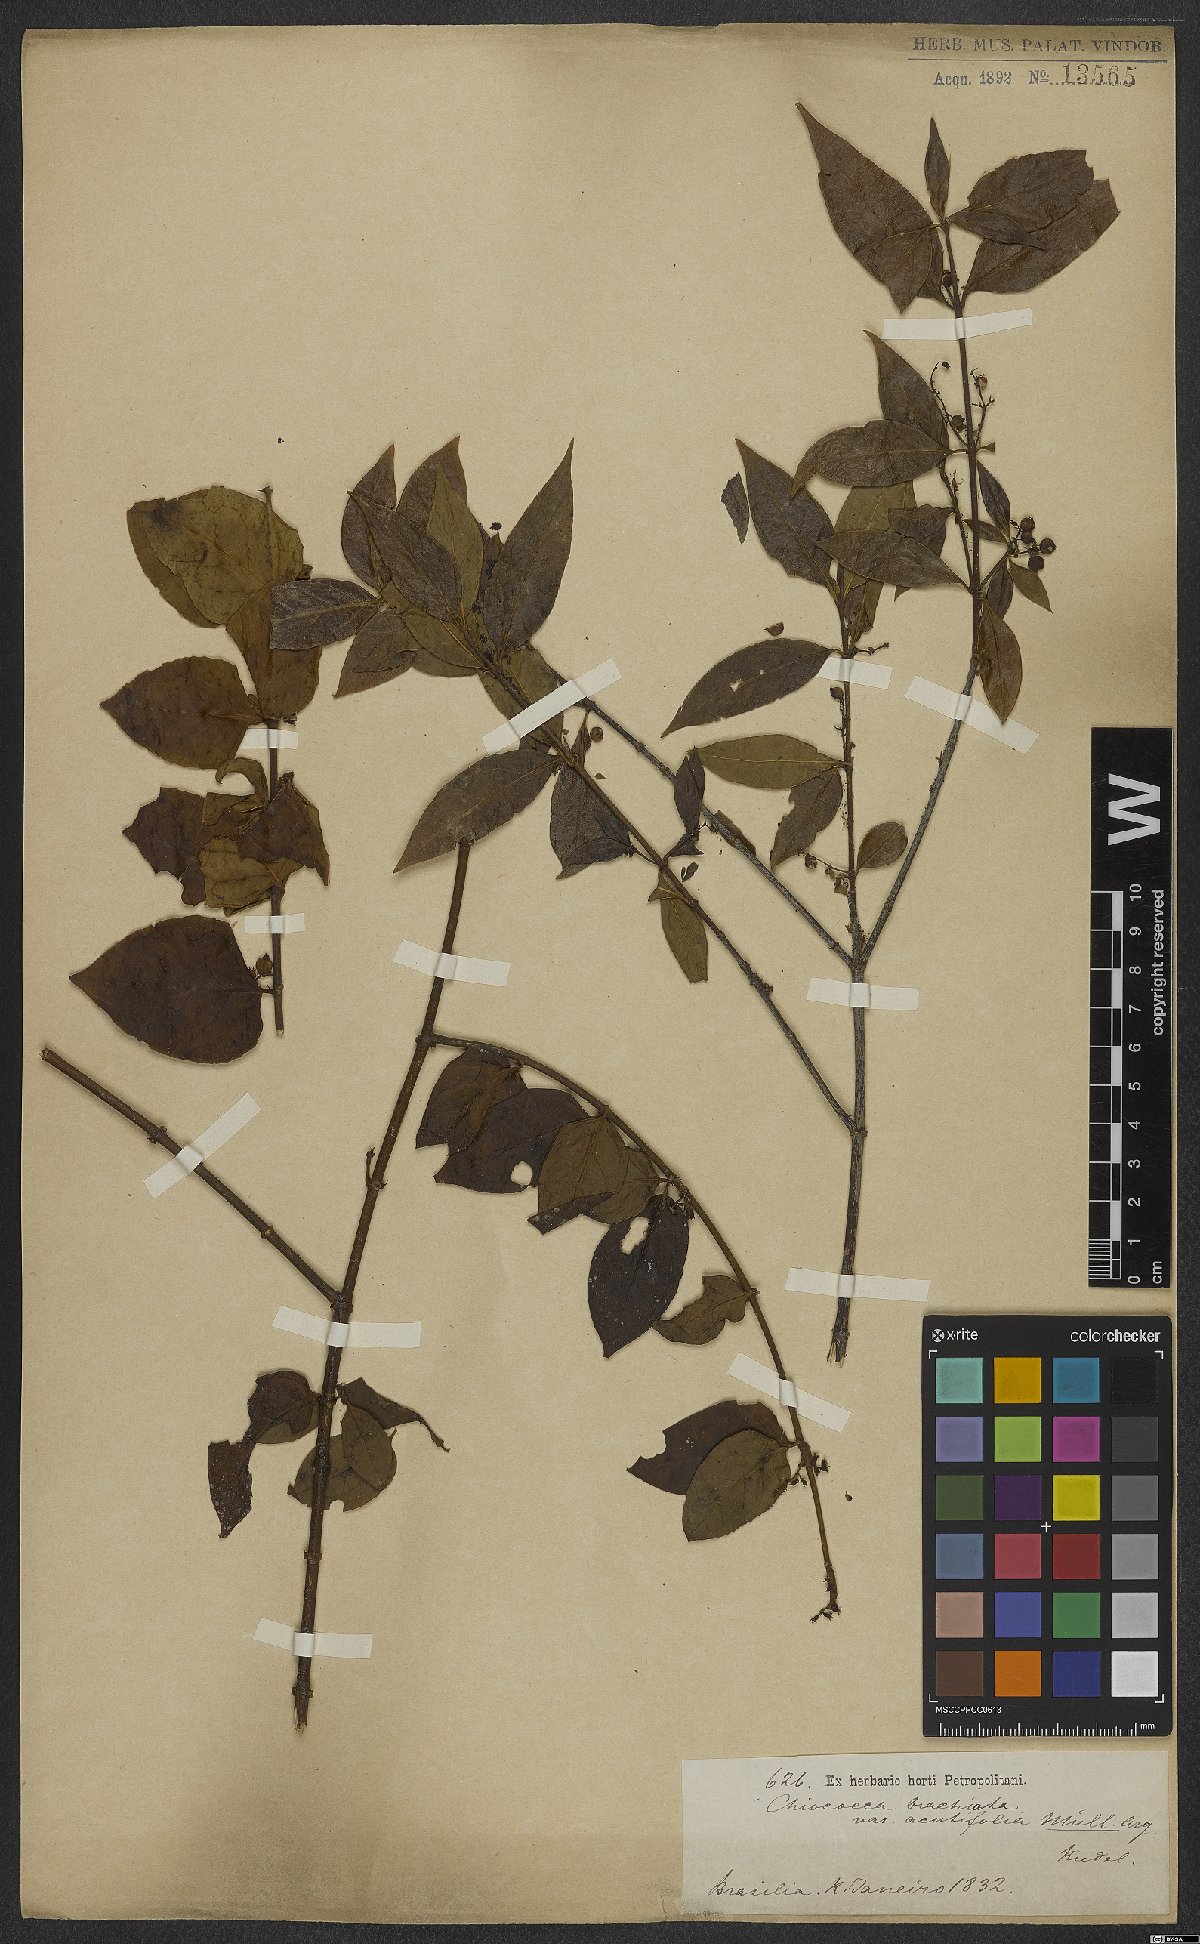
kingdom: Plantae
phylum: Tracheophyta
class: Magnoliopsida
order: Gentianales
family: Rubiaceae
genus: Chiococca
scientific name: Chiococca alba
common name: Snowberry
